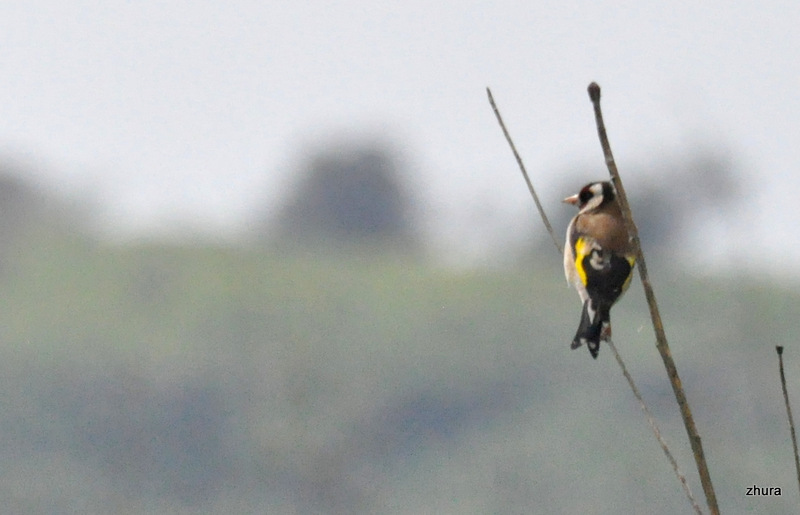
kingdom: Animalia
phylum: Chordata
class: Aves
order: Passeriformes
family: Fringillidae
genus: Carduelis
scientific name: Carduelis carduelis
